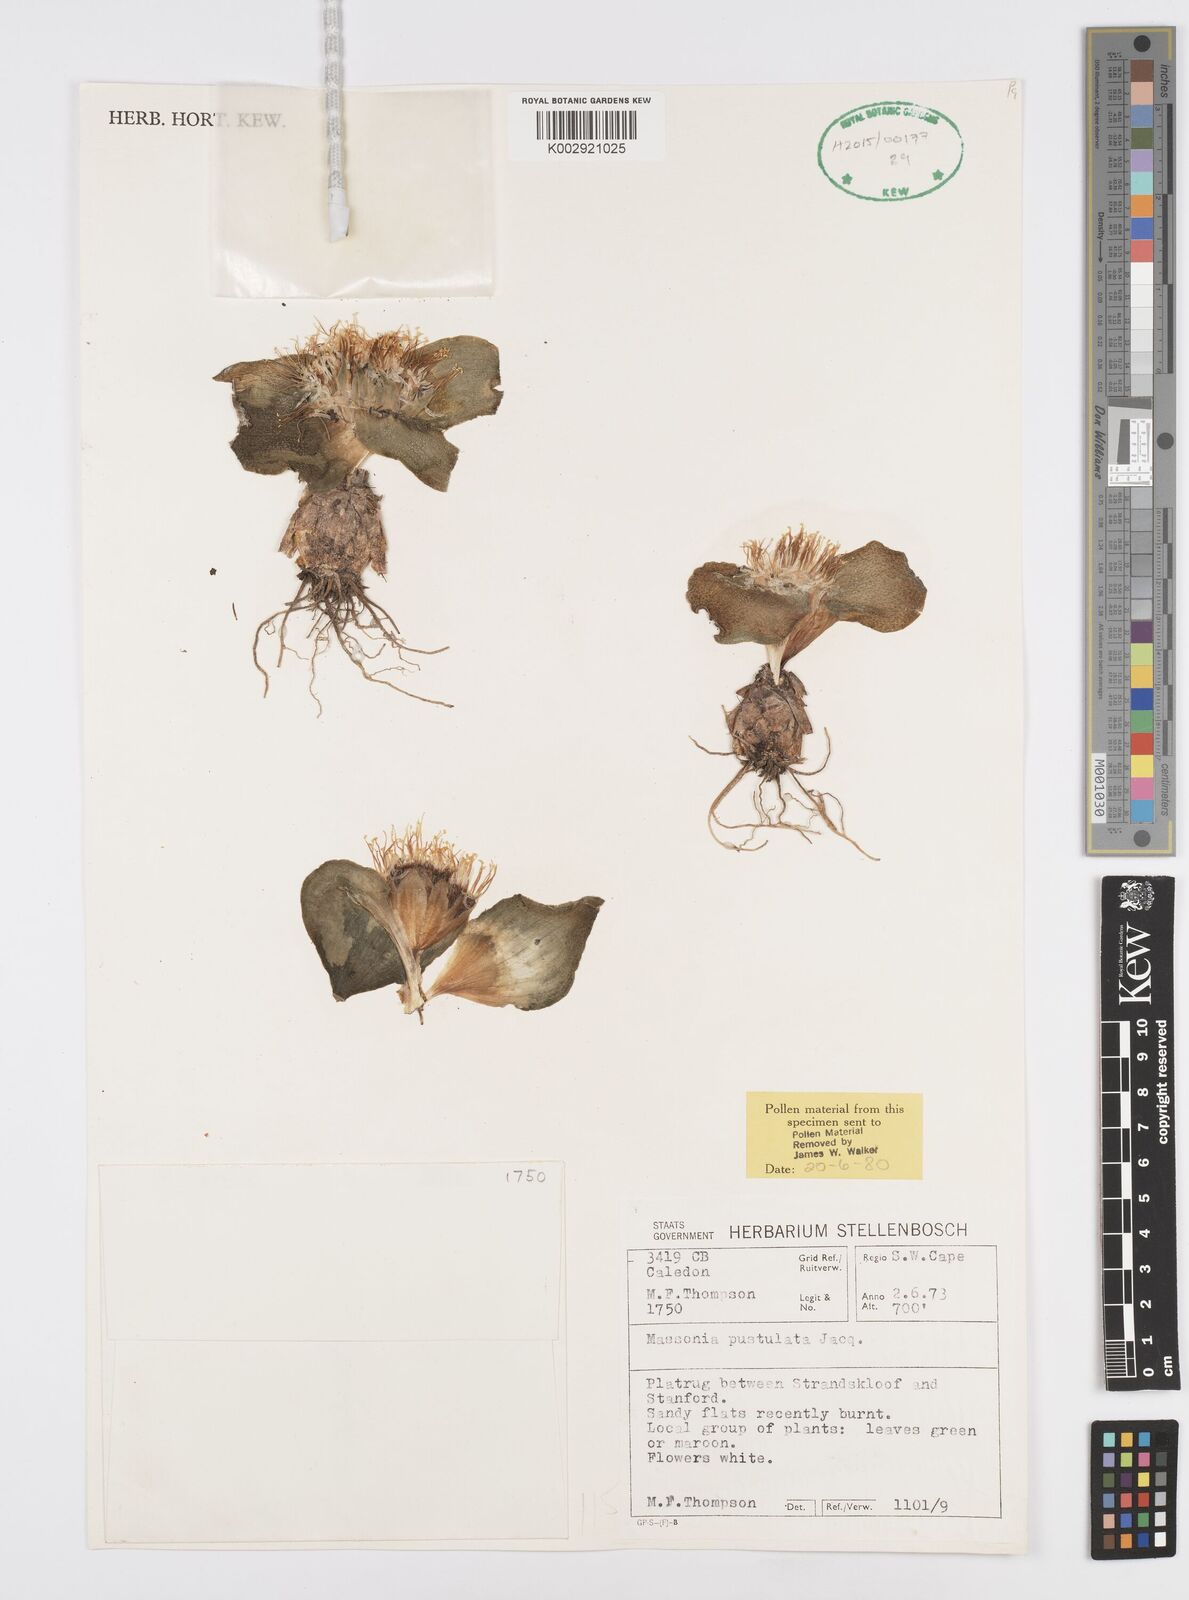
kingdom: Plantae
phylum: Tracheophyta
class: Liliopsida
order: Asparagales
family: Asparagaceae
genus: Massonia
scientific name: Massonia pustulata
